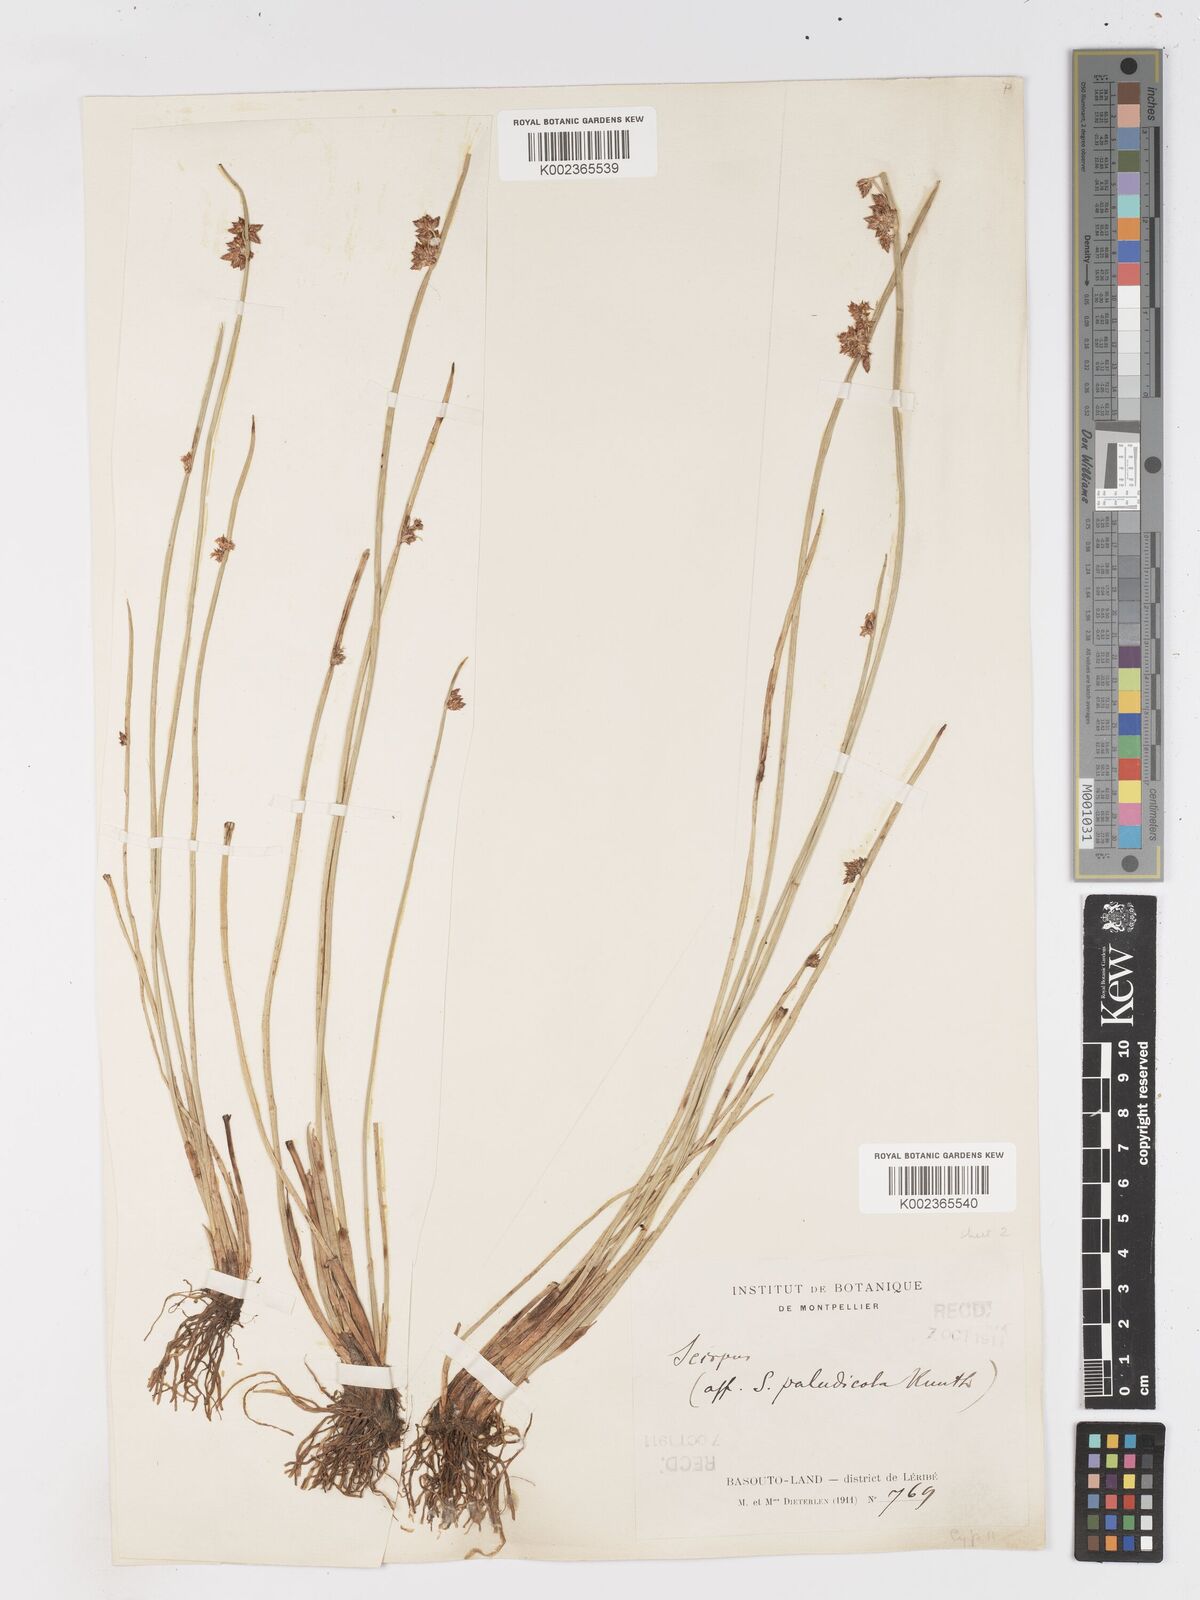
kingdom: Plantae
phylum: Tracheophyta
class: Liliopsida
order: Poales
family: Cyperaceae
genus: Schoenoplectiella
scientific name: Schoenoplectiella muricinux
